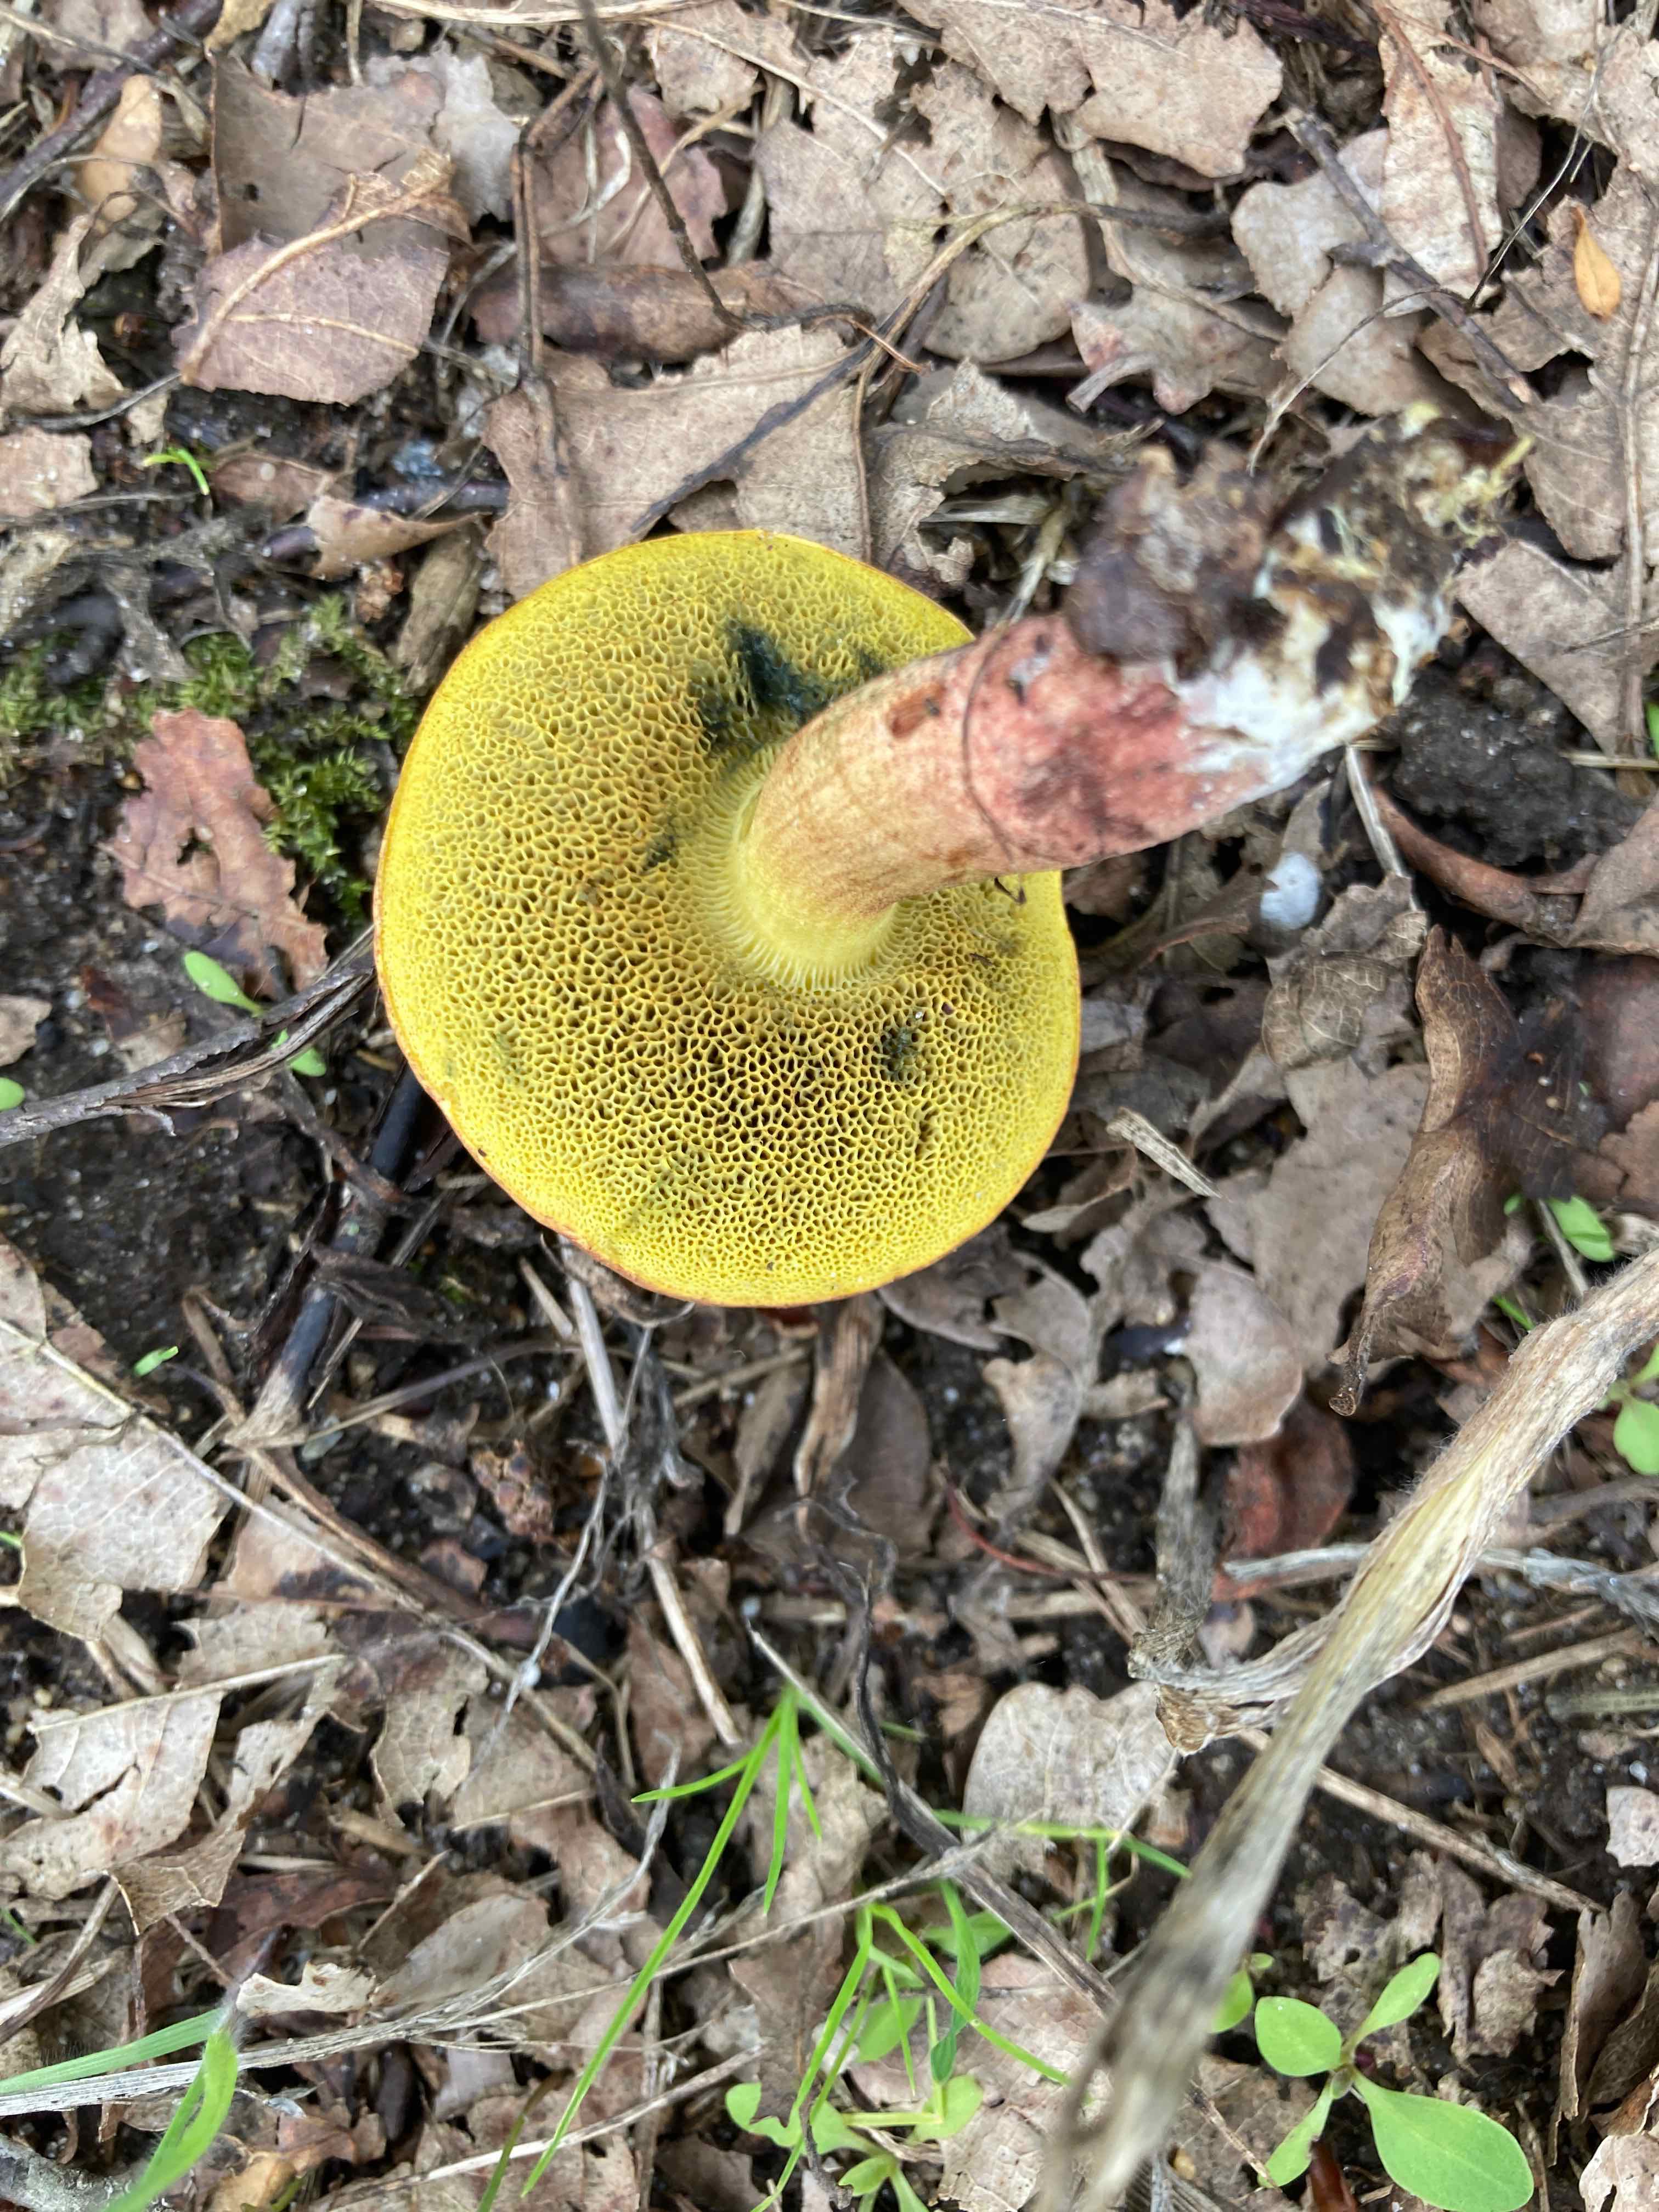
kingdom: Fungi
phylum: Basidiomycota
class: Agaricomycetes
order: Boletales
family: Boletaceae
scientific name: Boletaceae
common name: rørhatfamilien
